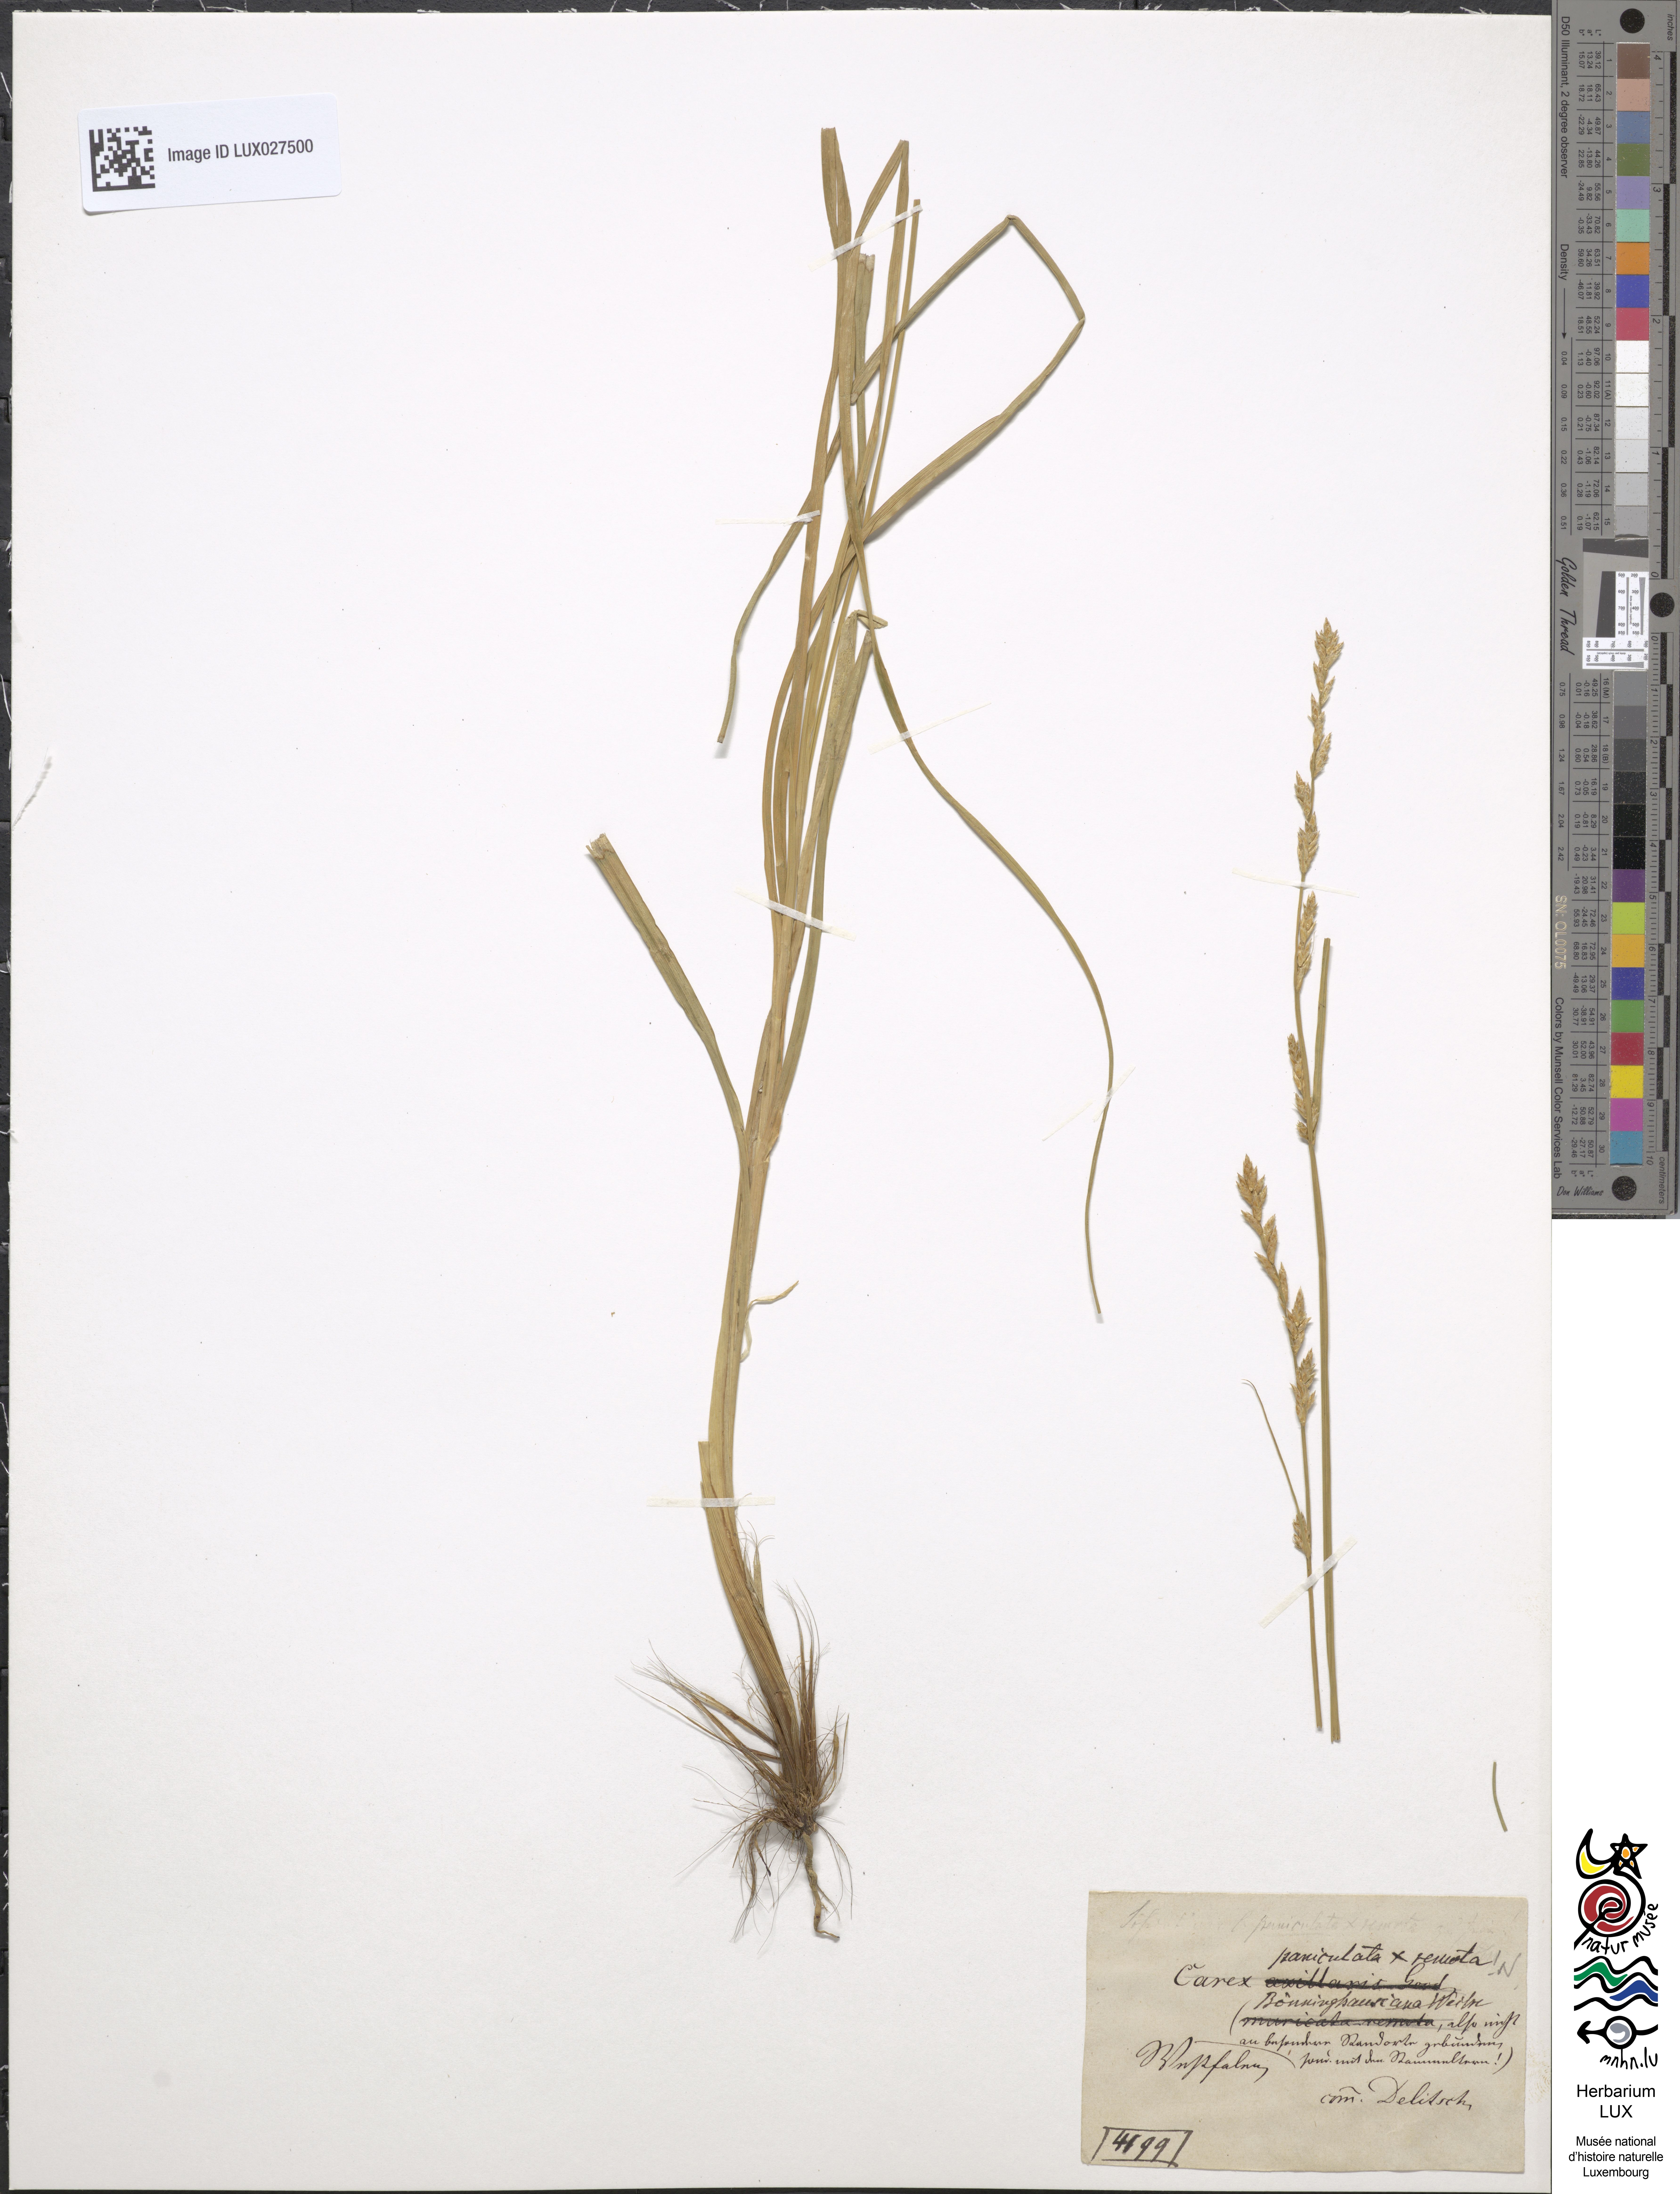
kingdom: Plantae
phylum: Tracheophyta
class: Liliopsida
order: Poales
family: Cyperaceae
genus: Carex
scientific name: Carex boenninghausiana
